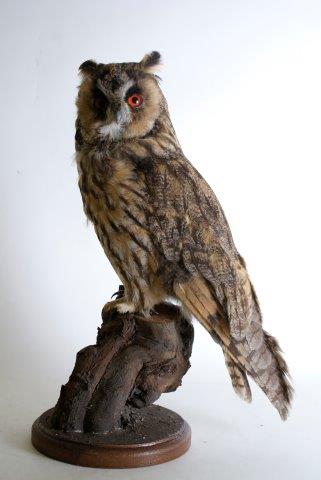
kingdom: Animalia
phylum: Chordata
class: Aves
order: Strigiformes
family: Strigidae
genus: Asio
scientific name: Asio otus
